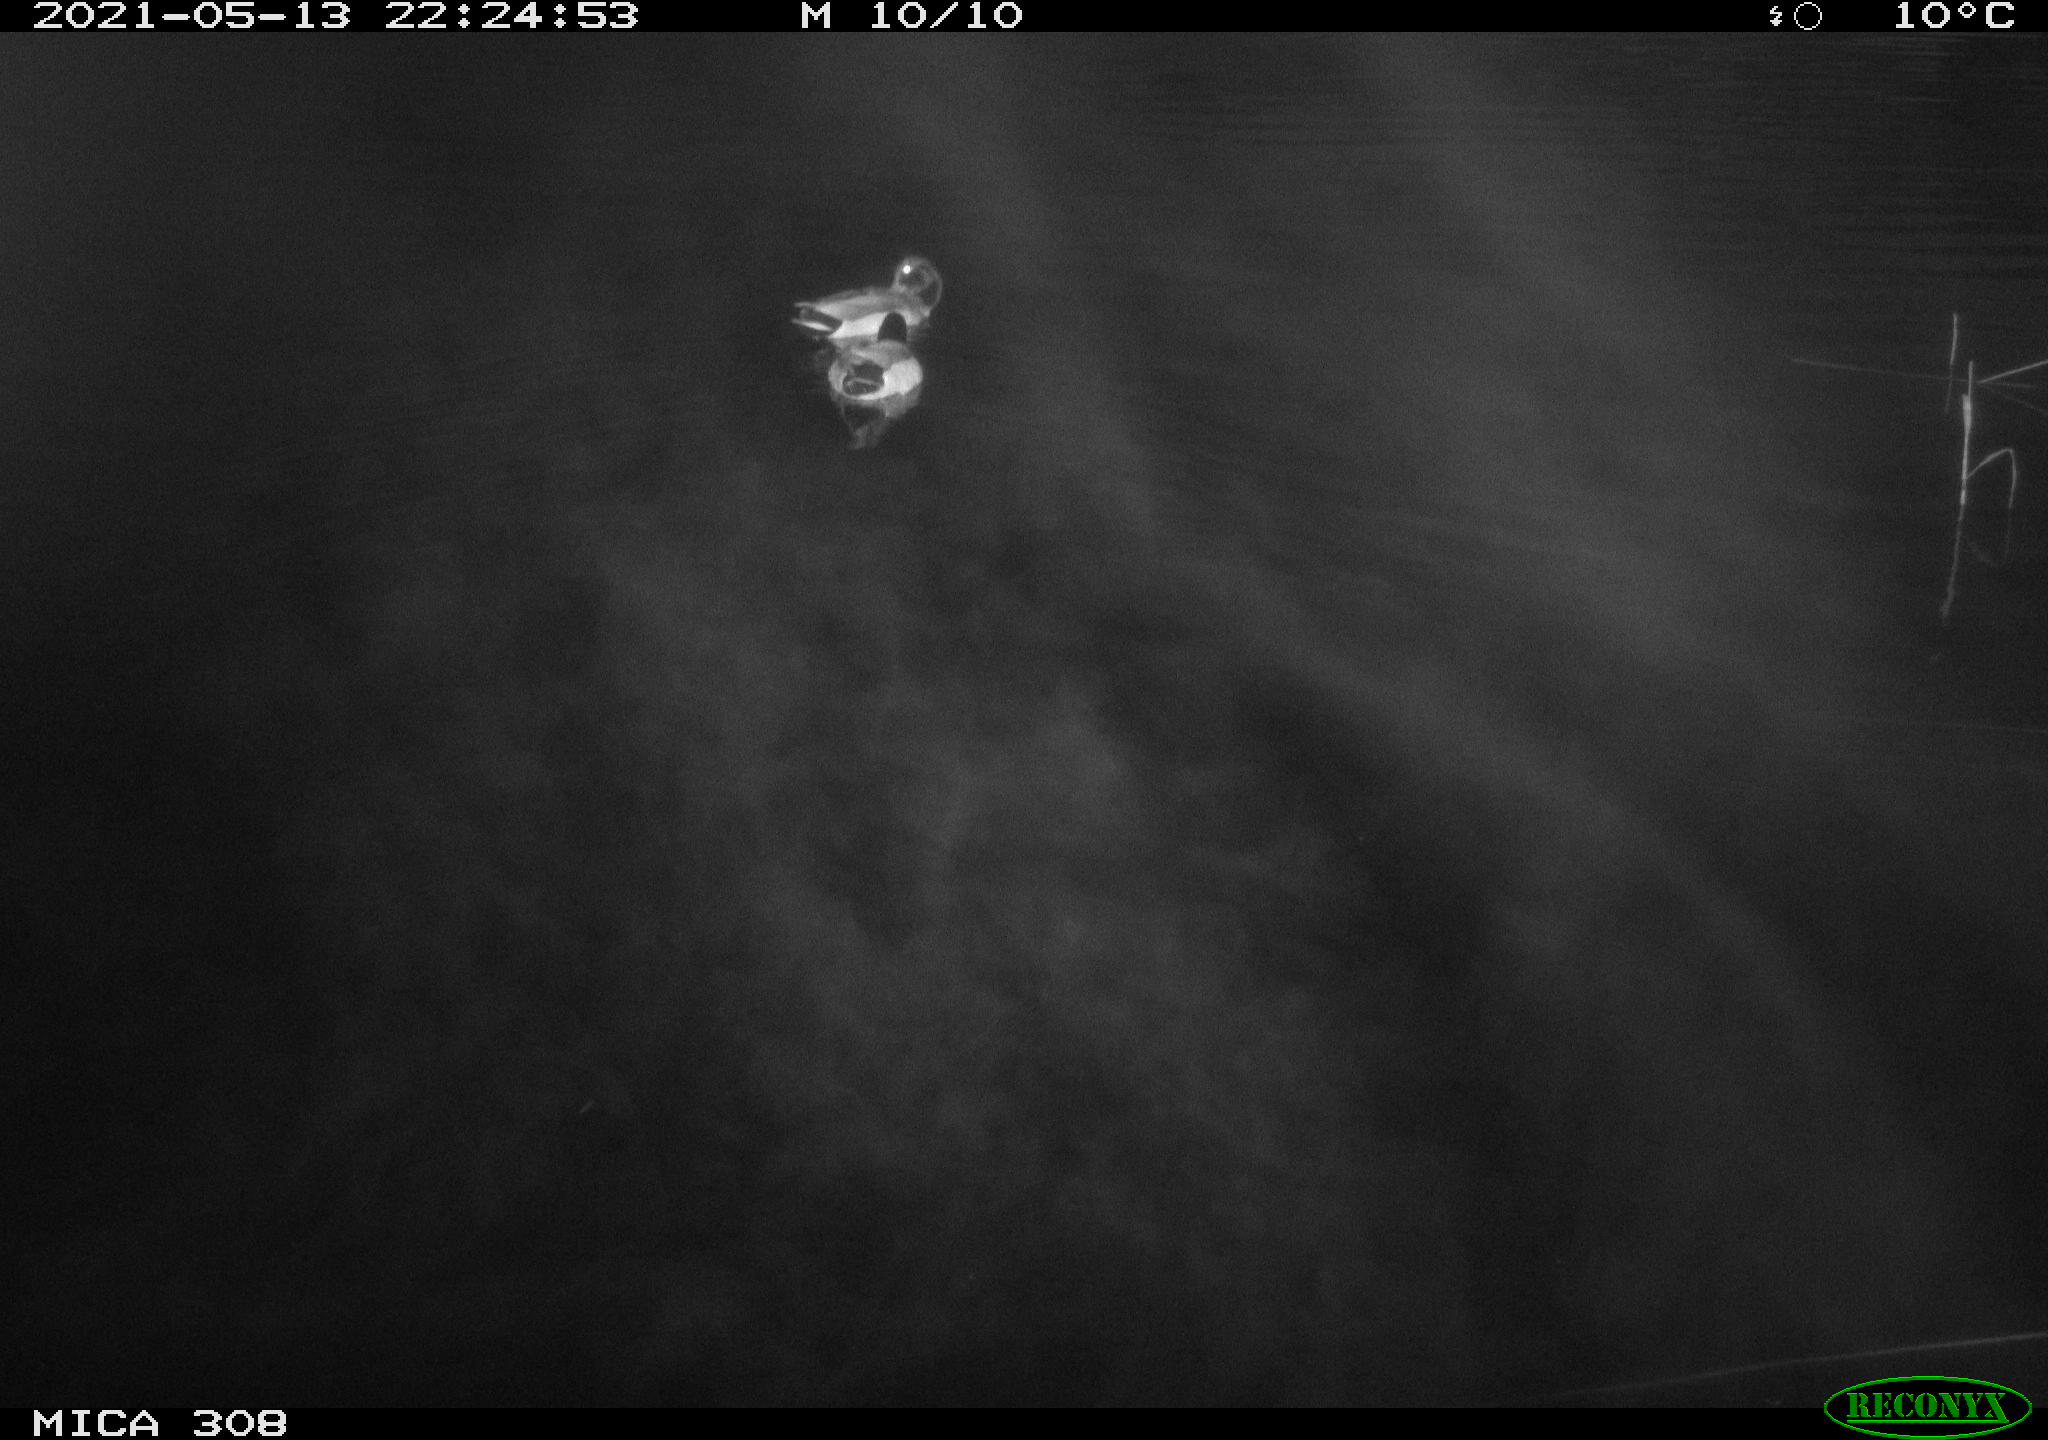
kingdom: Animalia
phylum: Chordata
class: Aves
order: Anseriformes
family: Anatidae
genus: Anas
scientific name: Anas platyrhynchos
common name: Mallard
